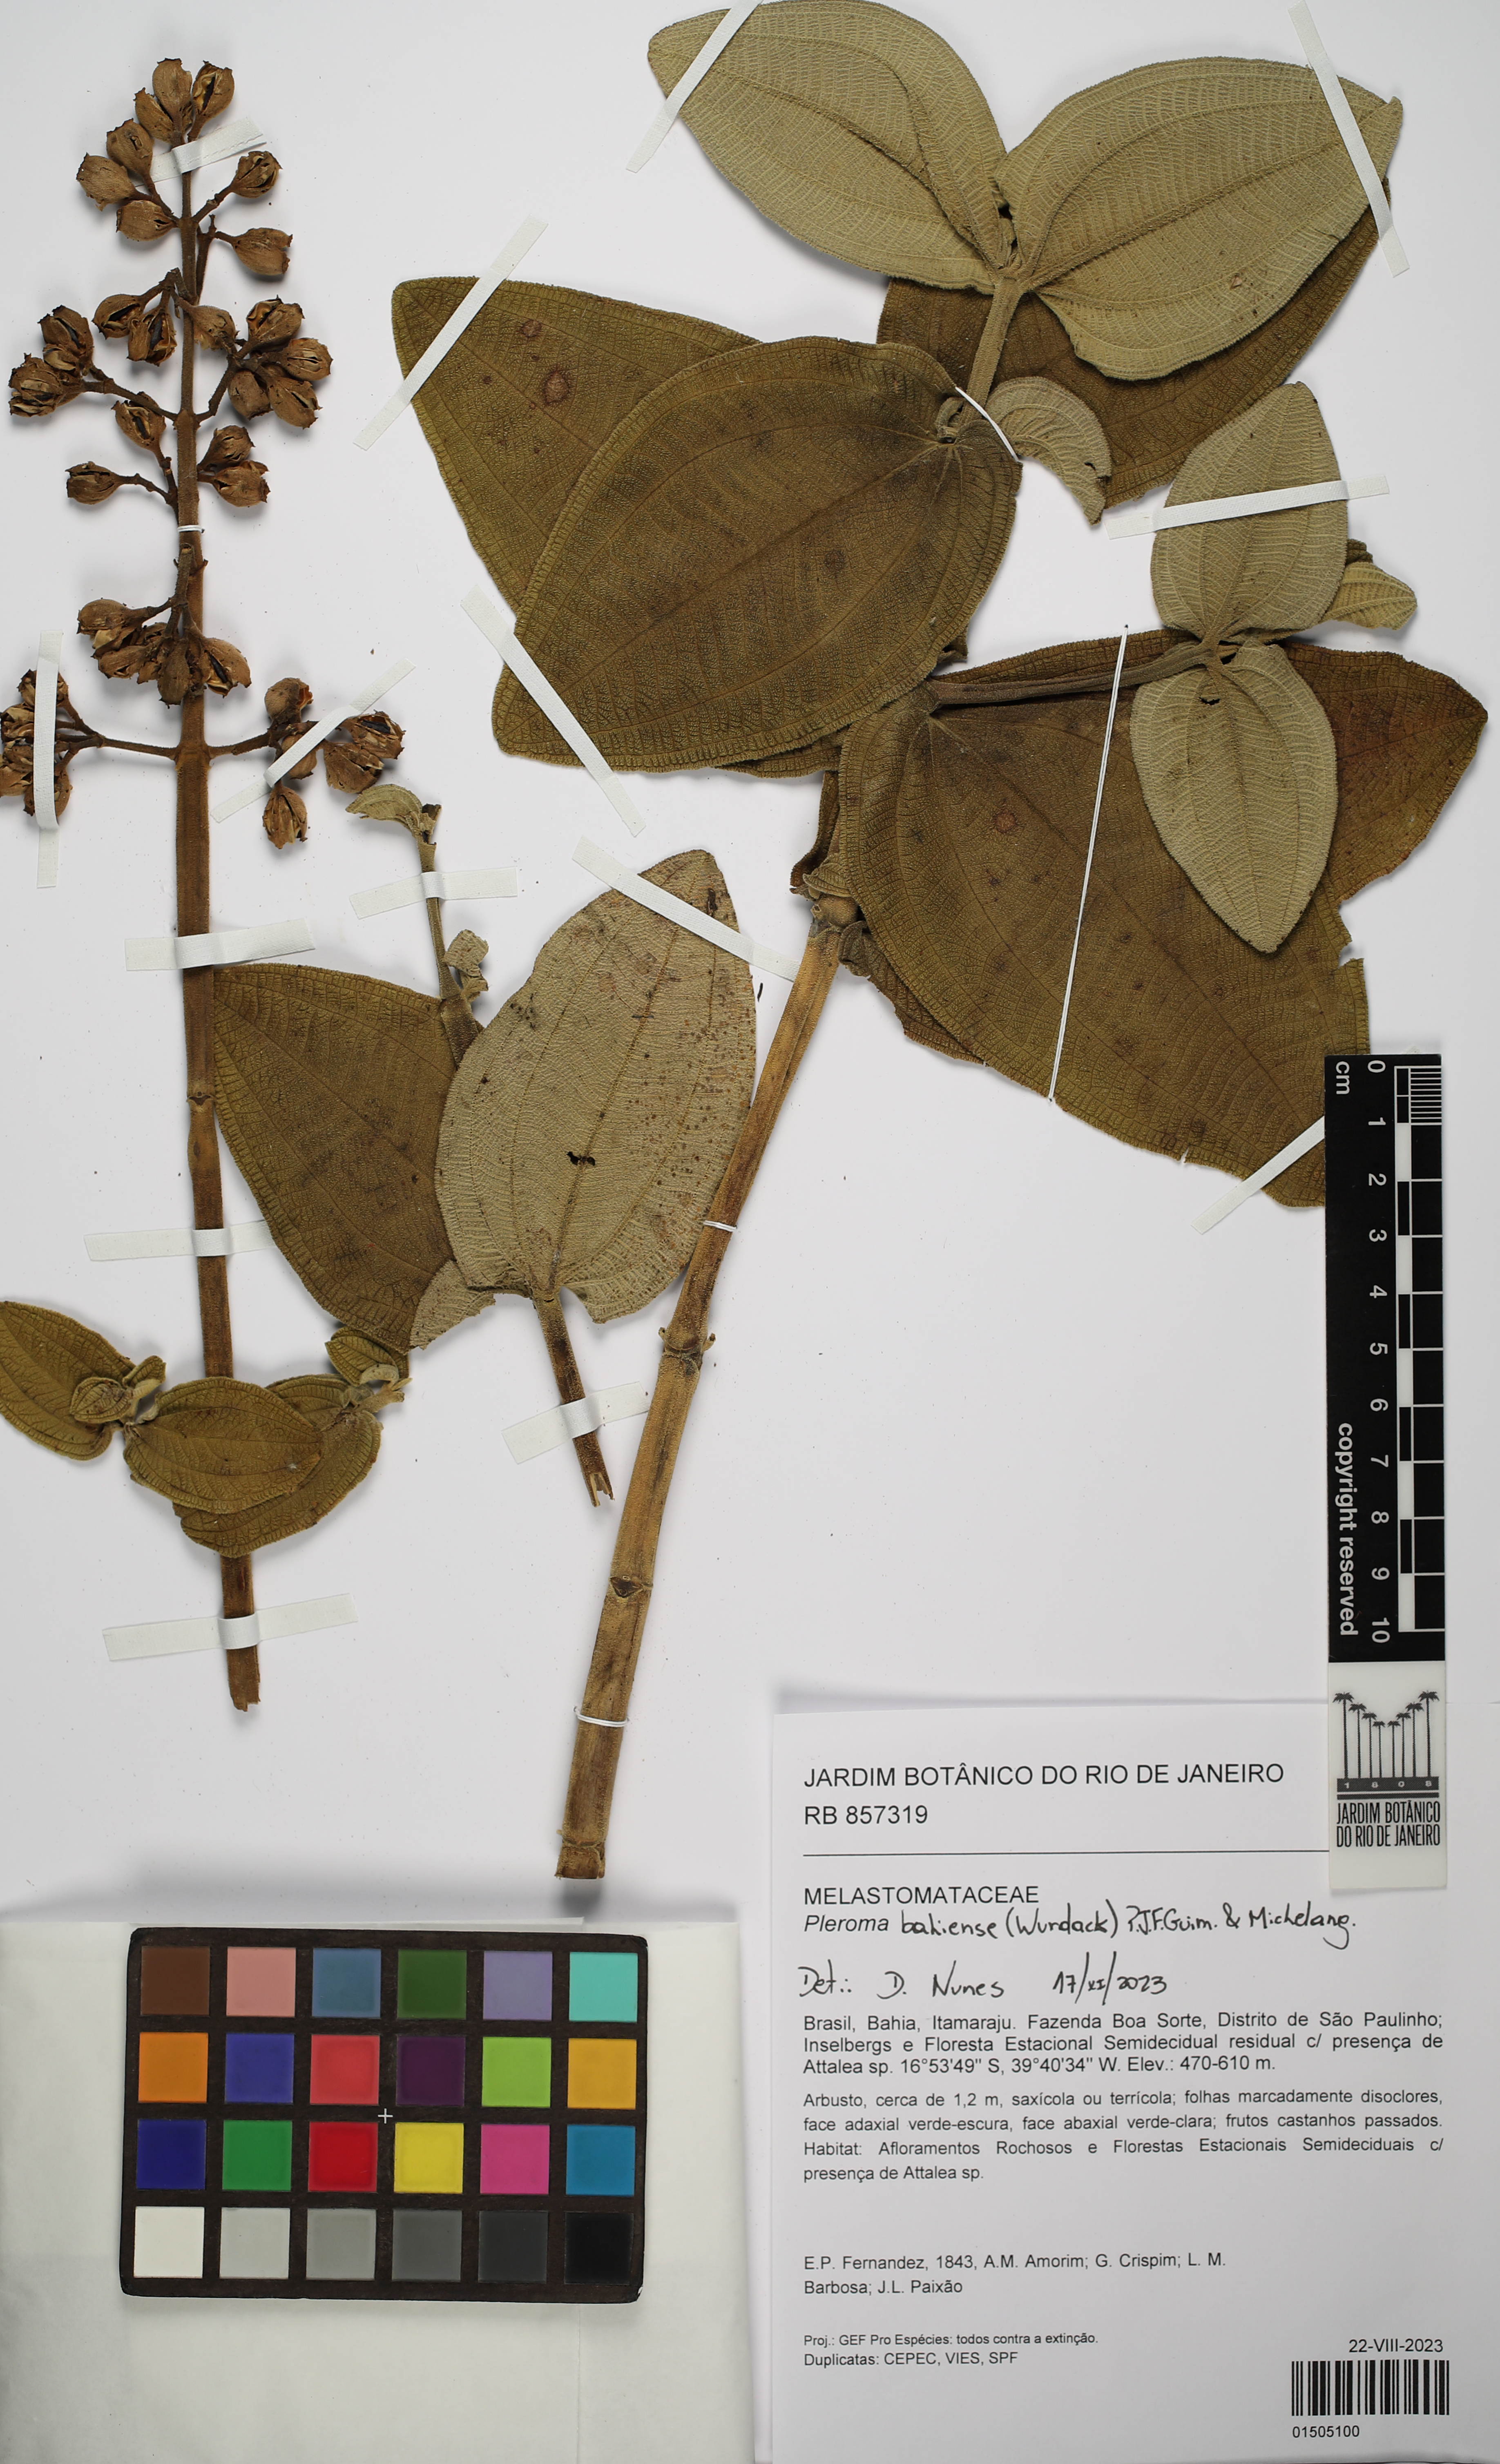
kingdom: Plantae
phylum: Tracheophyta
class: Magnoliopsida
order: Myrtales
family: Melastomataceae
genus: Pleroma
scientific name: Pleroma bahiense
